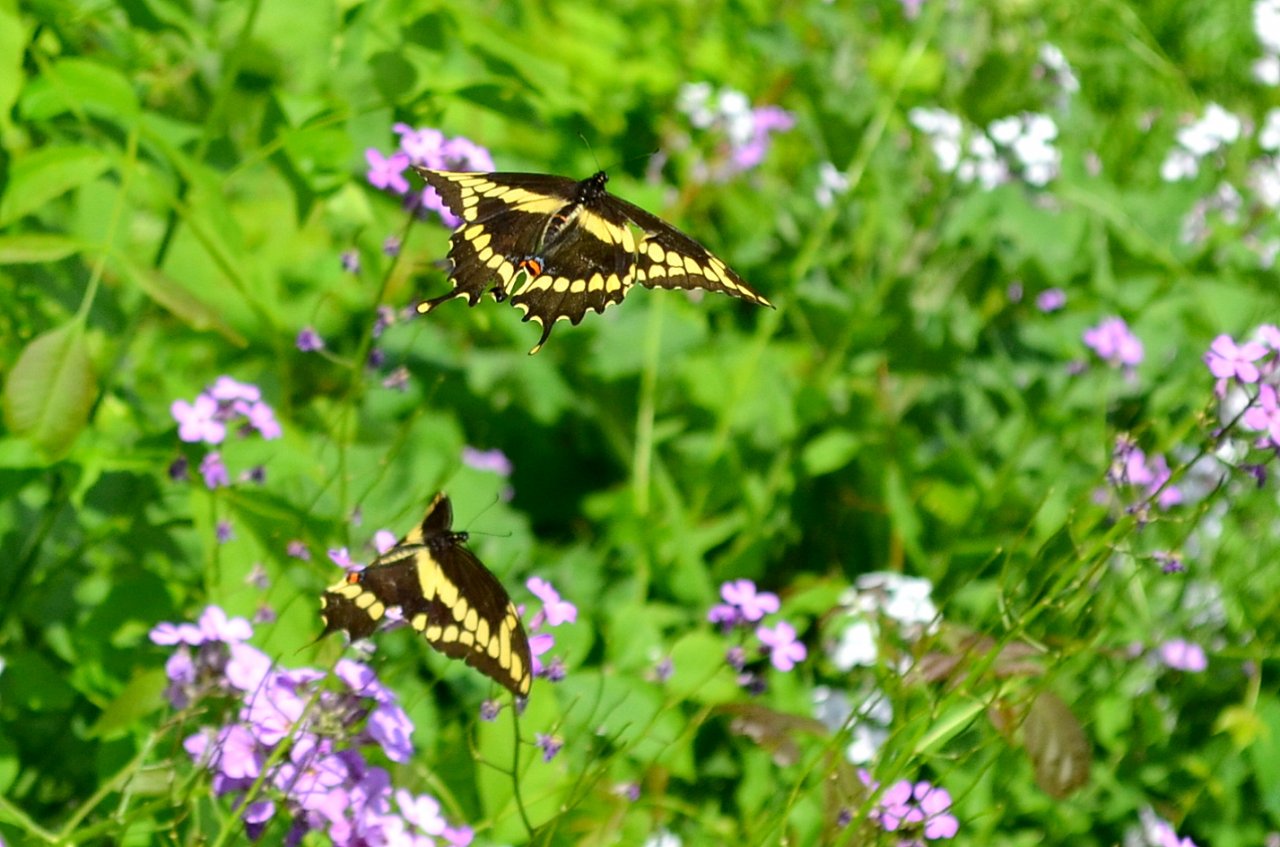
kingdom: Animalia
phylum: Arthropoda
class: Insecta
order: Lepidoptera
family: Papilionidae
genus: Papilio
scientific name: Papilio cresphontes
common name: Eastern Giant Swallowtail
